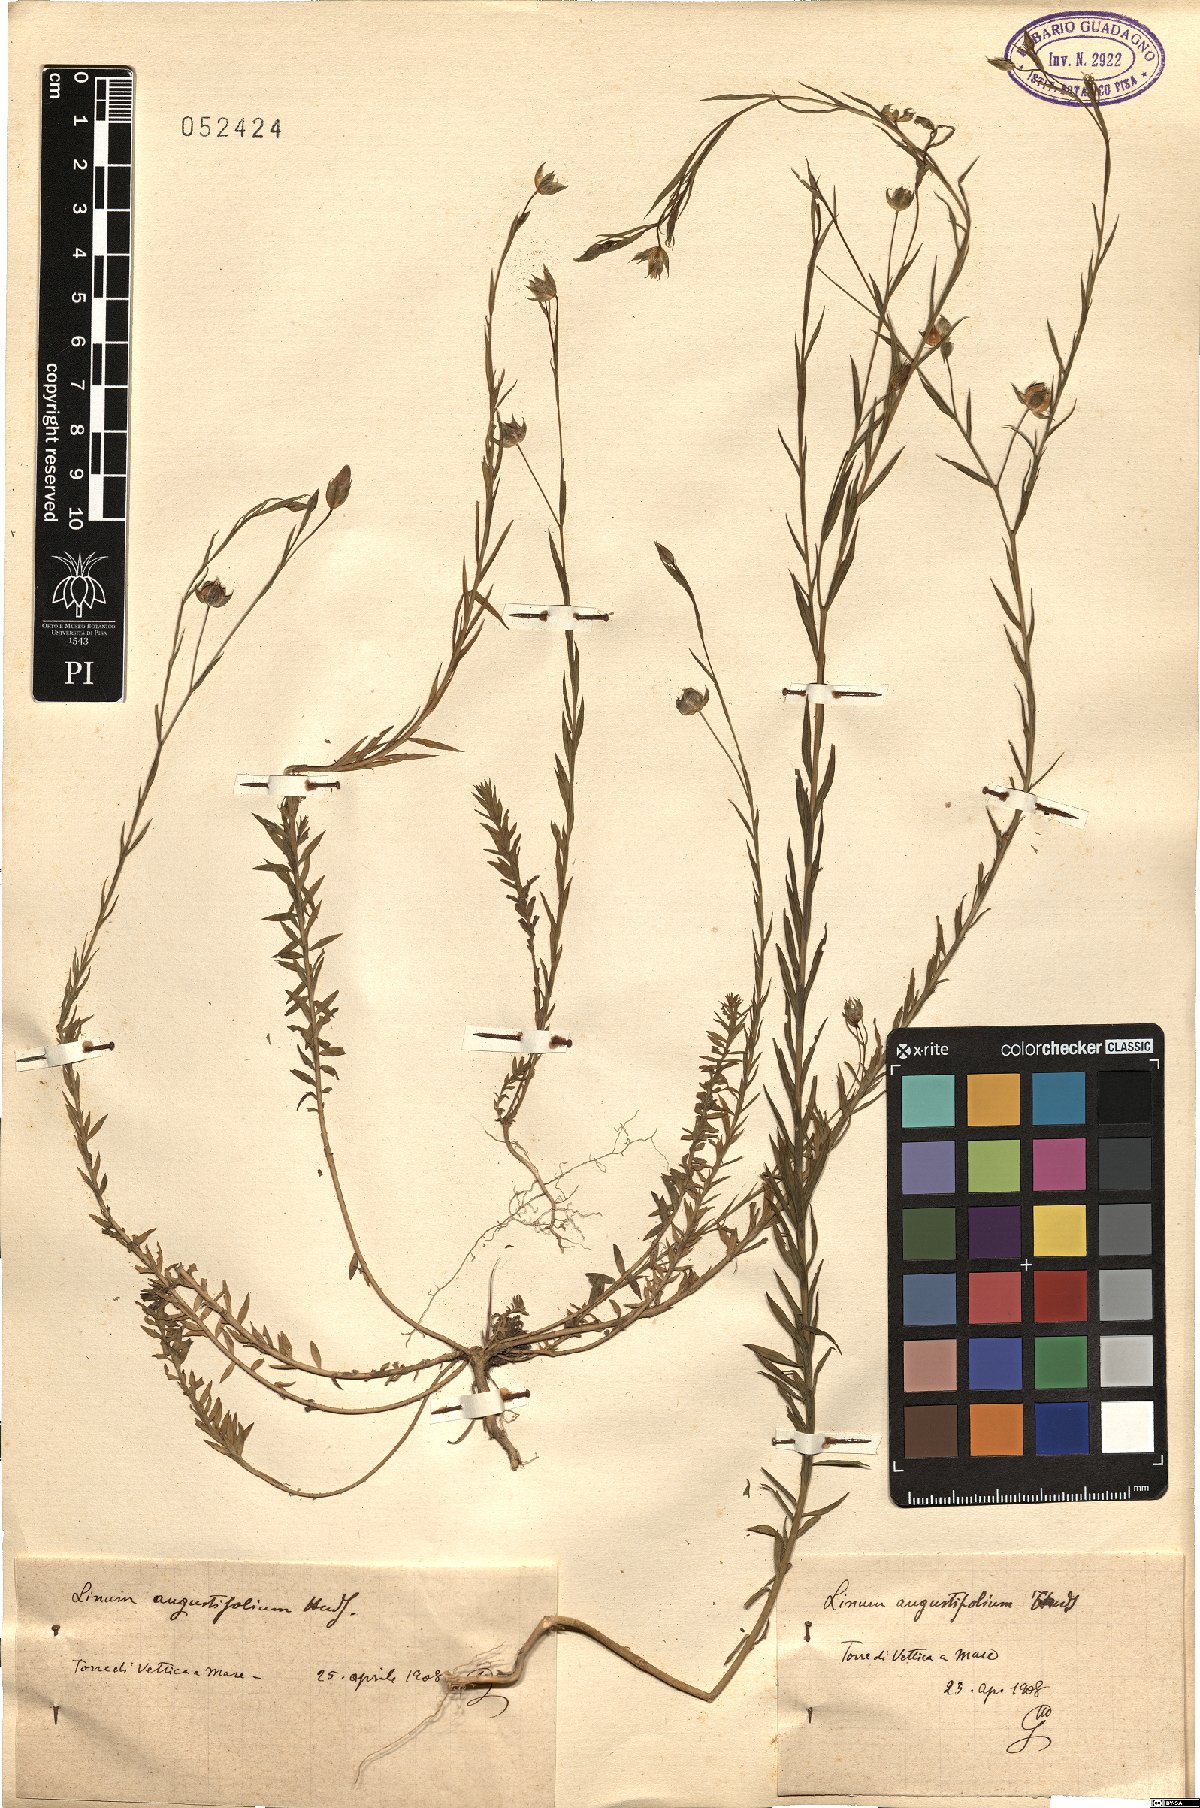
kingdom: Plantae
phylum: Tracheophyta
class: Magnoliopsida
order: Malpighiales
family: Linaceae
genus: Linum
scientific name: Linum bienne
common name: Pale flax
